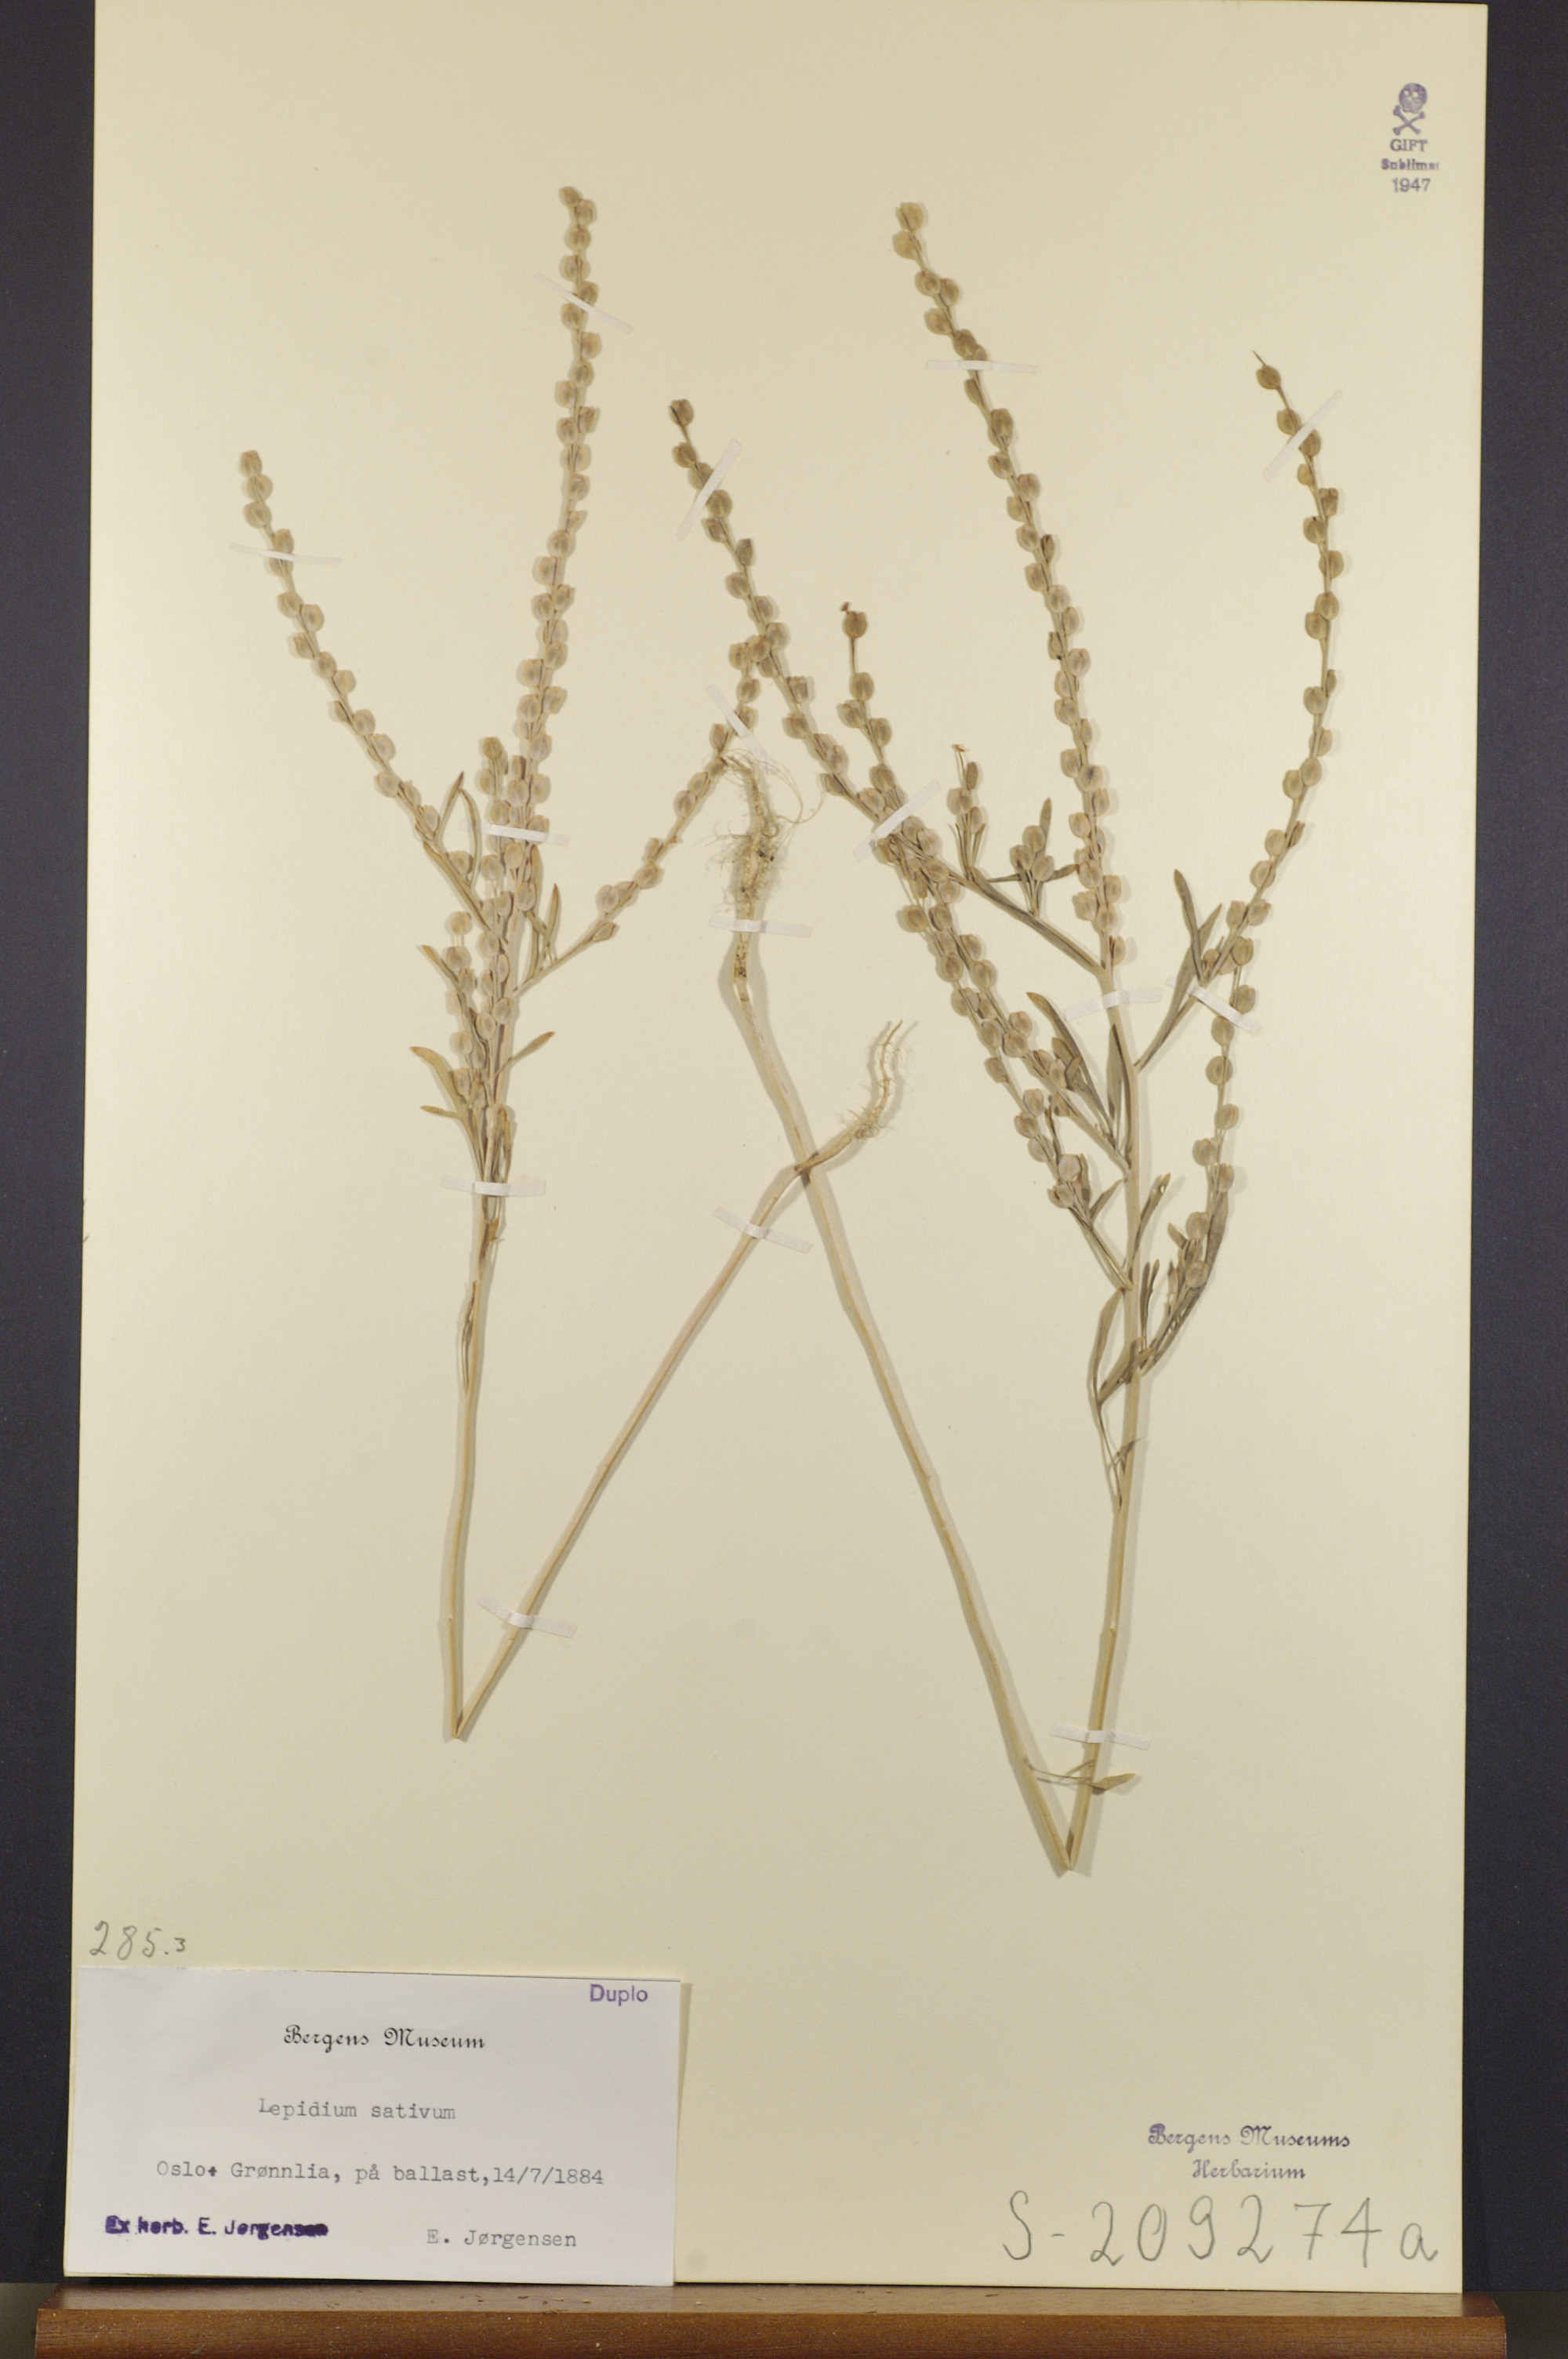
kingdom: Plantae
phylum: Tracheophyta
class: Magnoliopsida
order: Brassicales
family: Brassicaceae
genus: Lepidium
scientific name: Lepidium sativum
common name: Garden cress
